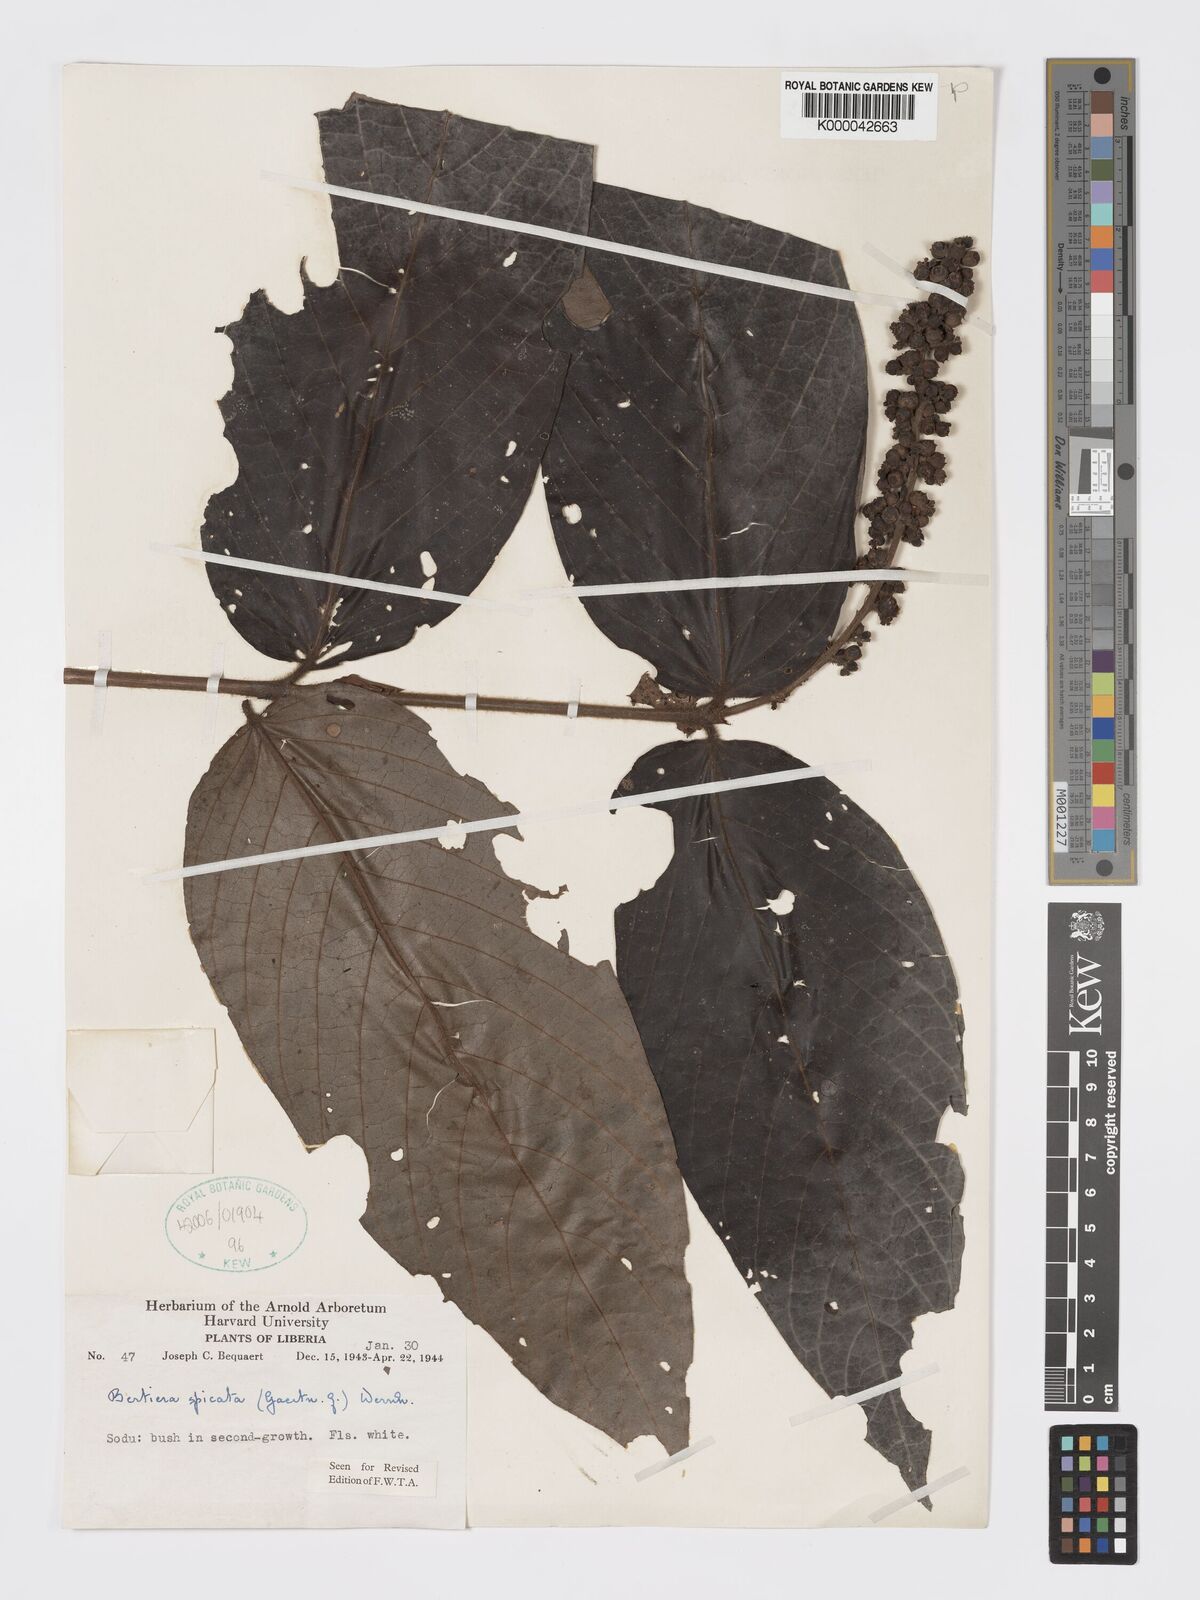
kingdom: Plantae
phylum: Tracheophyta
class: Magnoliopsida
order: Gentianales
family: Rubiaceae
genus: Bertiera
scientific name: Bertiera
